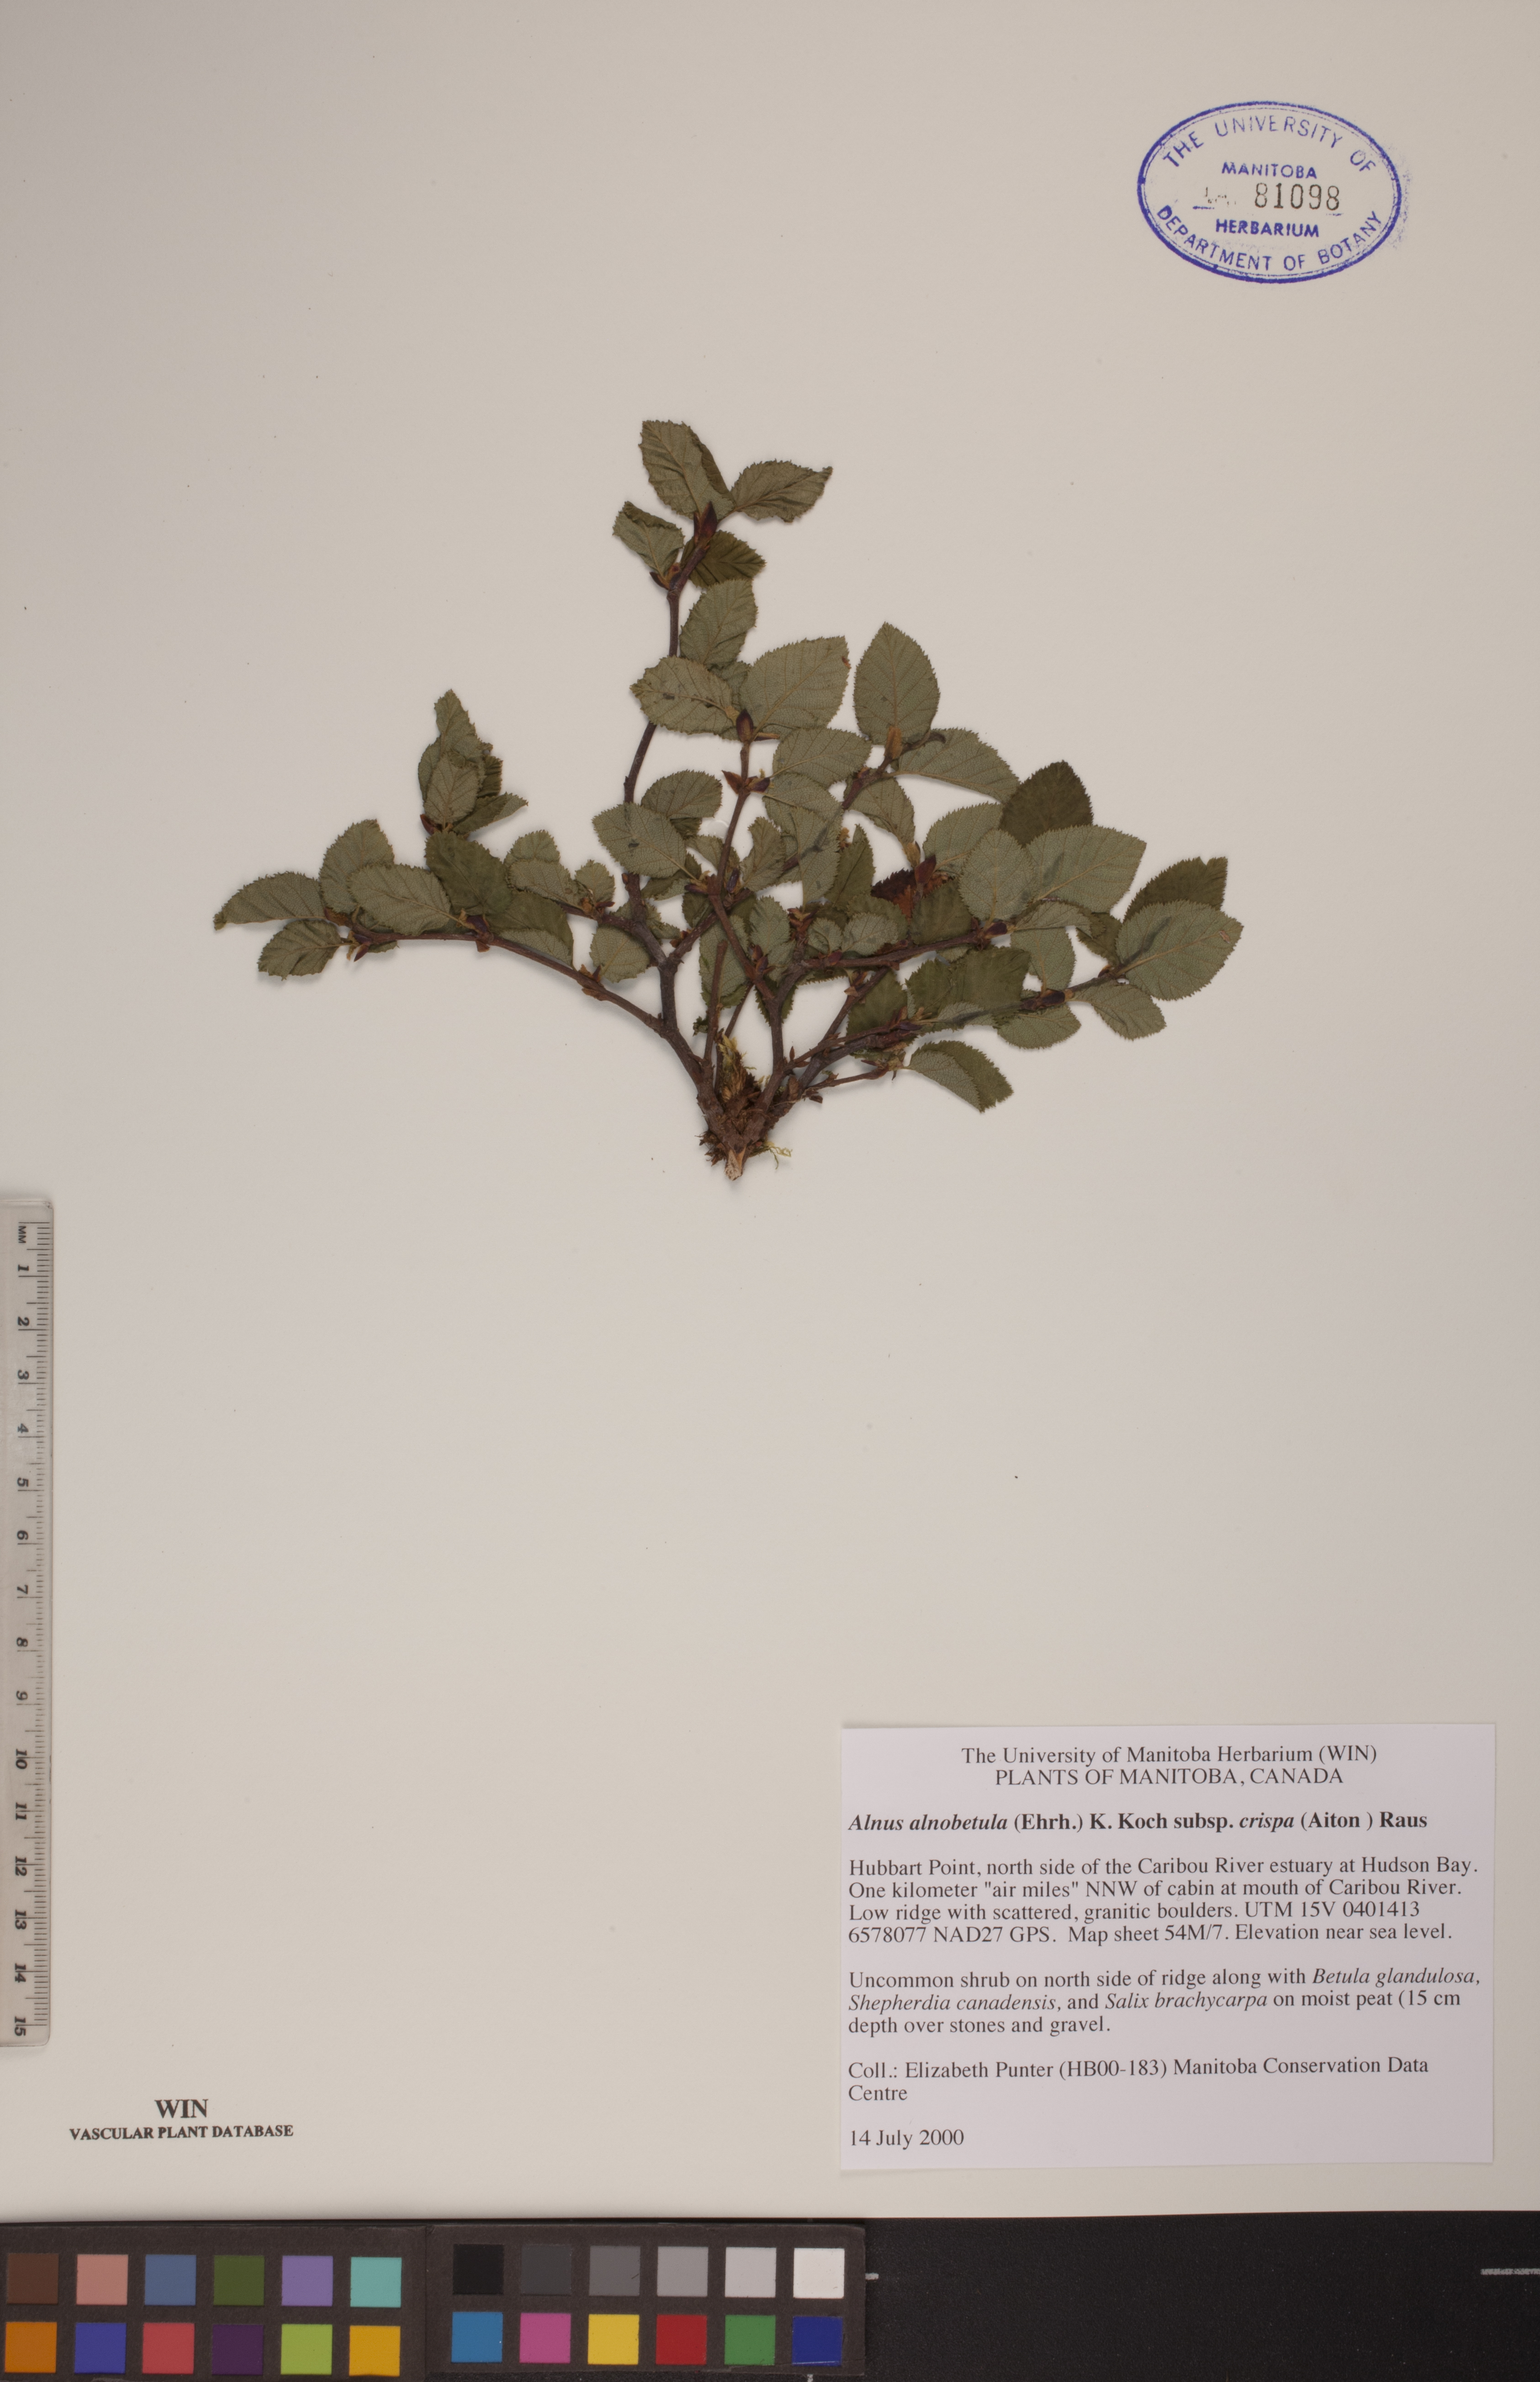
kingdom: Plantae
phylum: Tracheophyta
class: Magnoliopsida
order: Fagales
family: Betulaceae
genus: Alnus
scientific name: Alnus alnobetula
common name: Green alder
